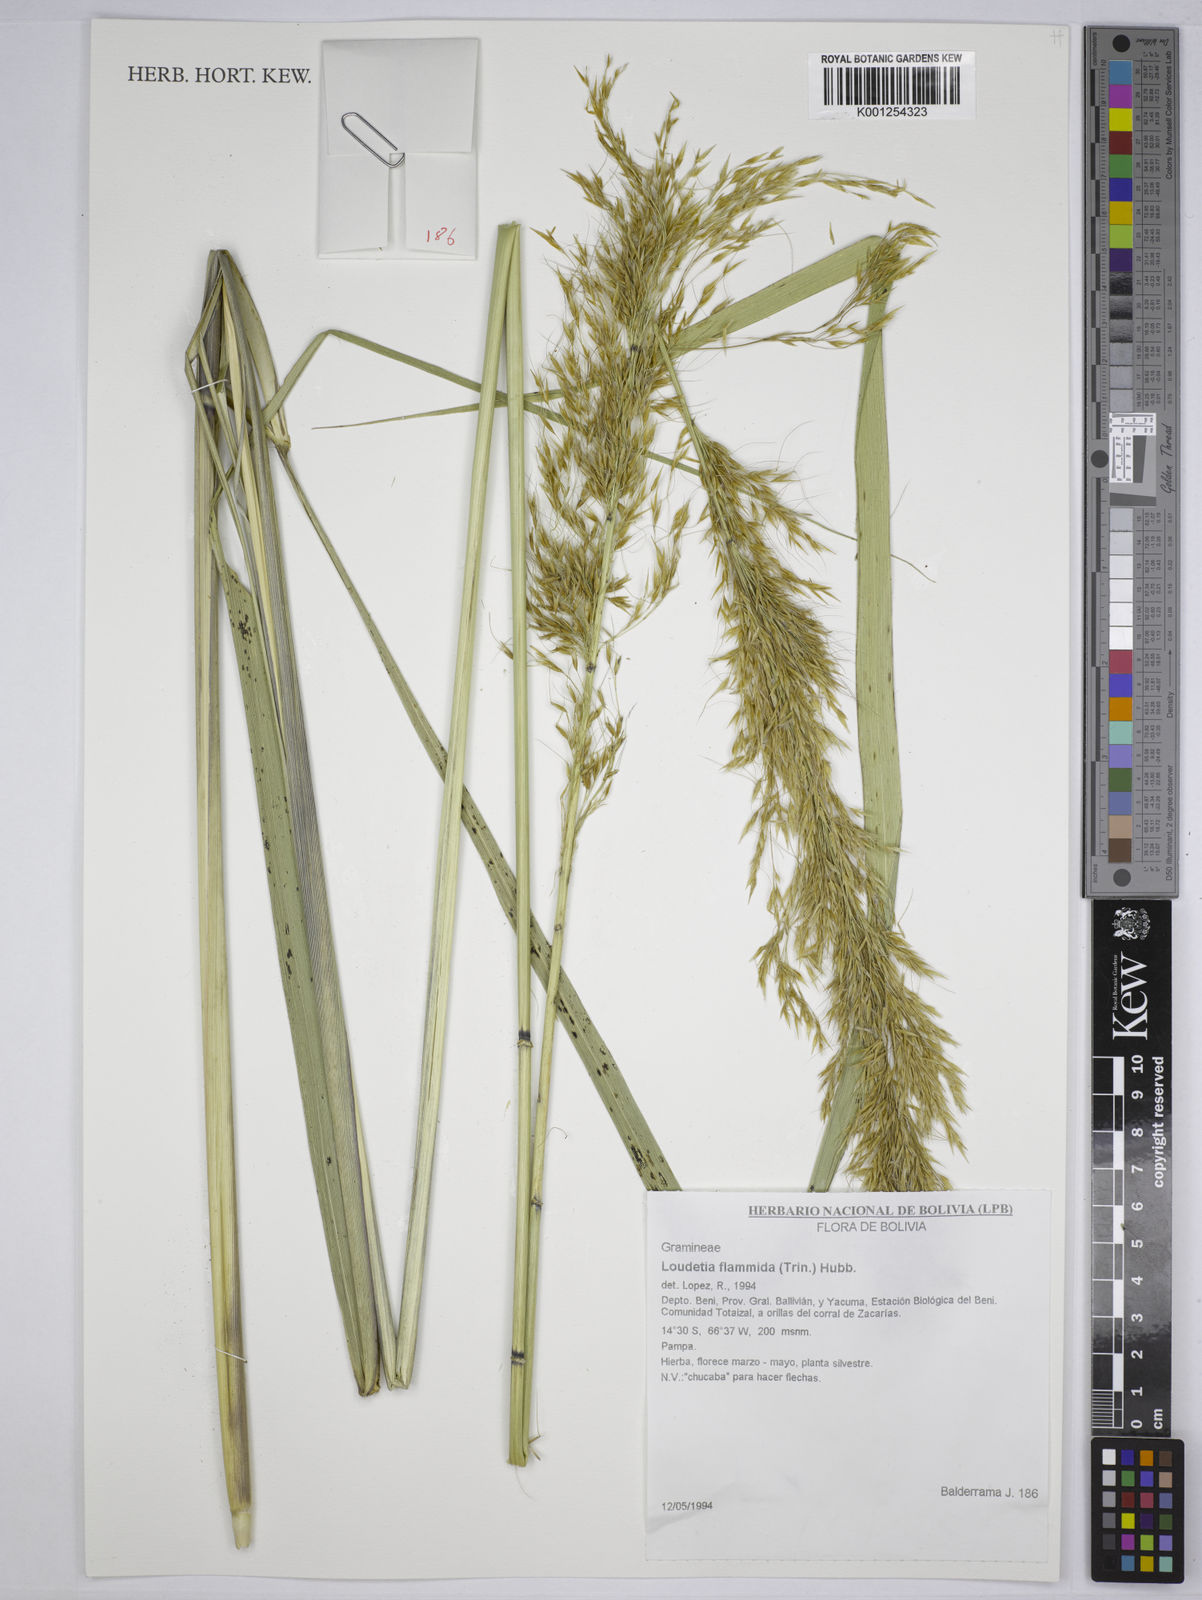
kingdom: Plantae
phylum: Tracheophyta
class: Liliopsida
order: Poales
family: Poaceae
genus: Loudetia
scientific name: Loudetia flammida
